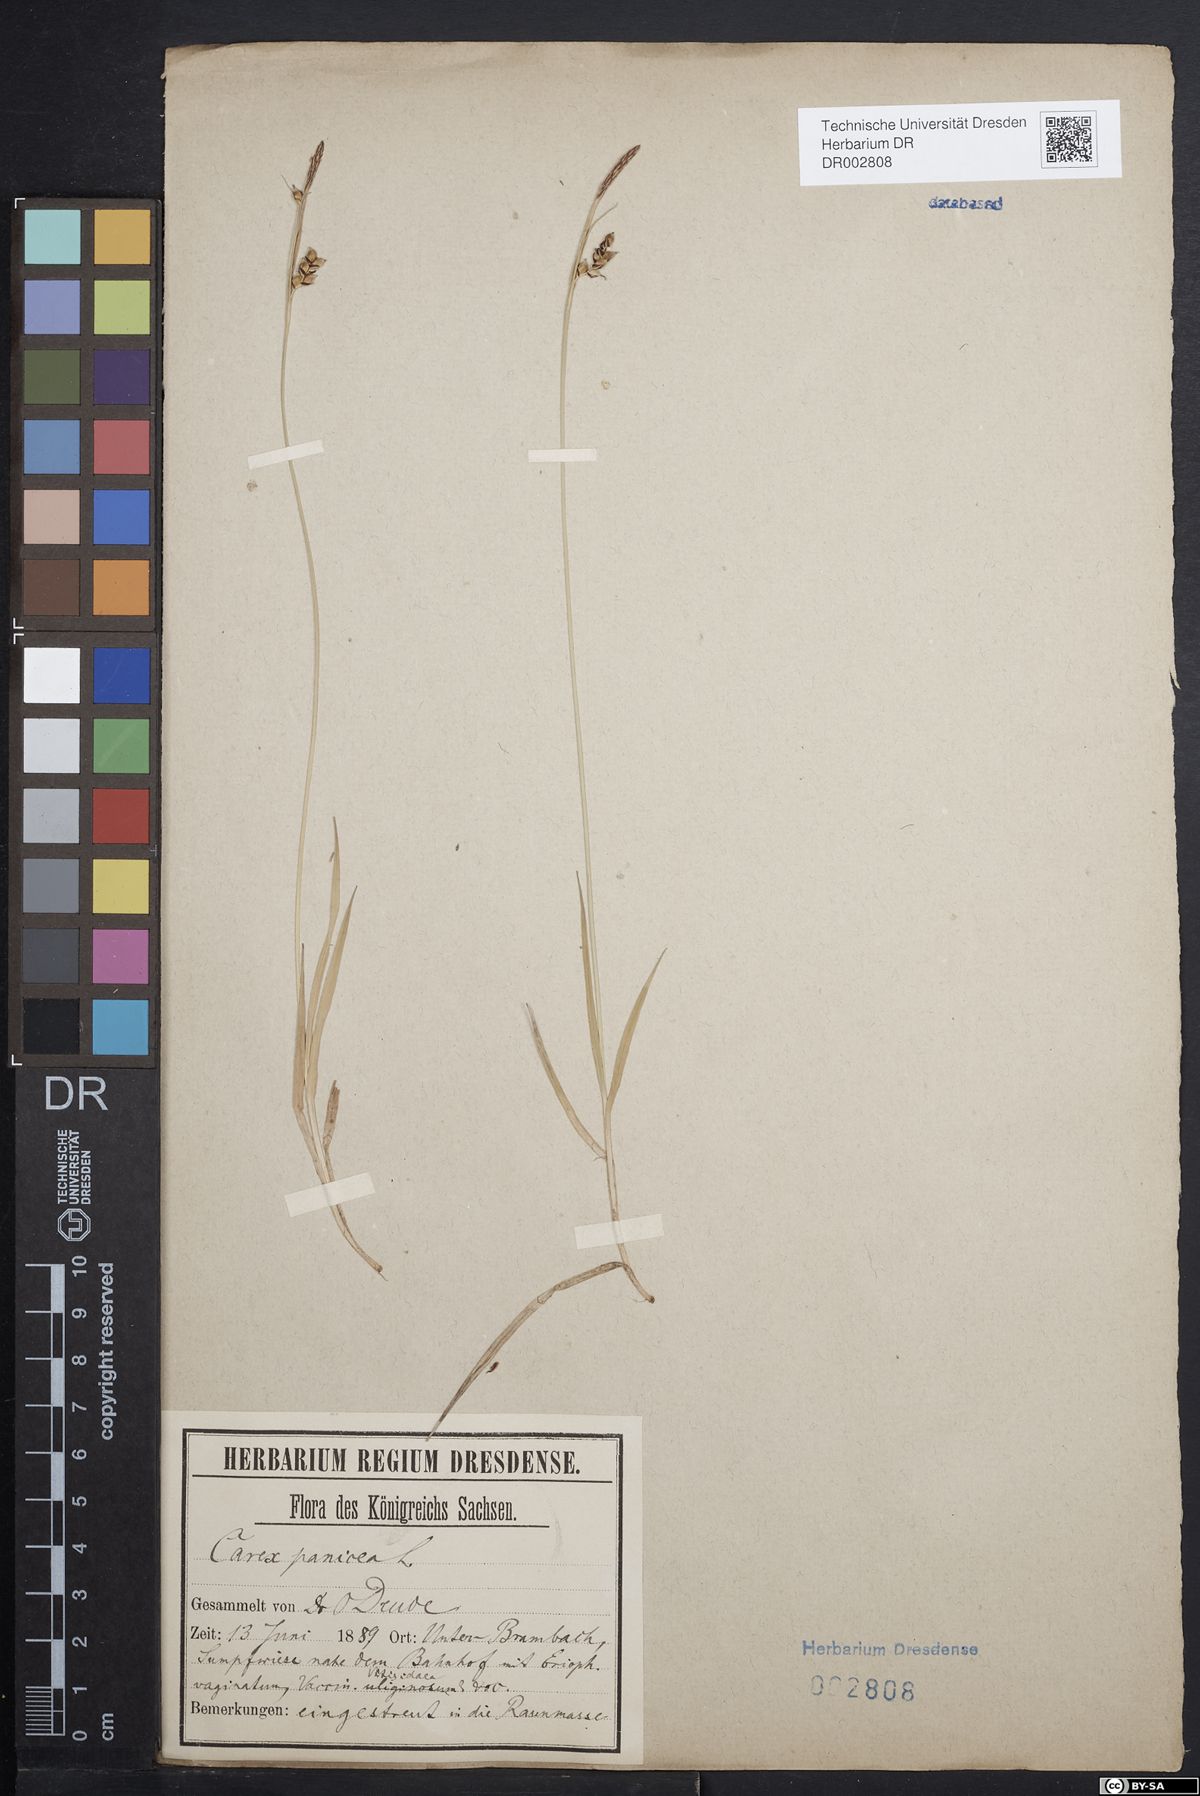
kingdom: Plantae
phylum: Tracheophyta
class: Liliopsida
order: Poales
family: Cyperaceae
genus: Carex
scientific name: Carex panicea
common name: Carnation sedge
